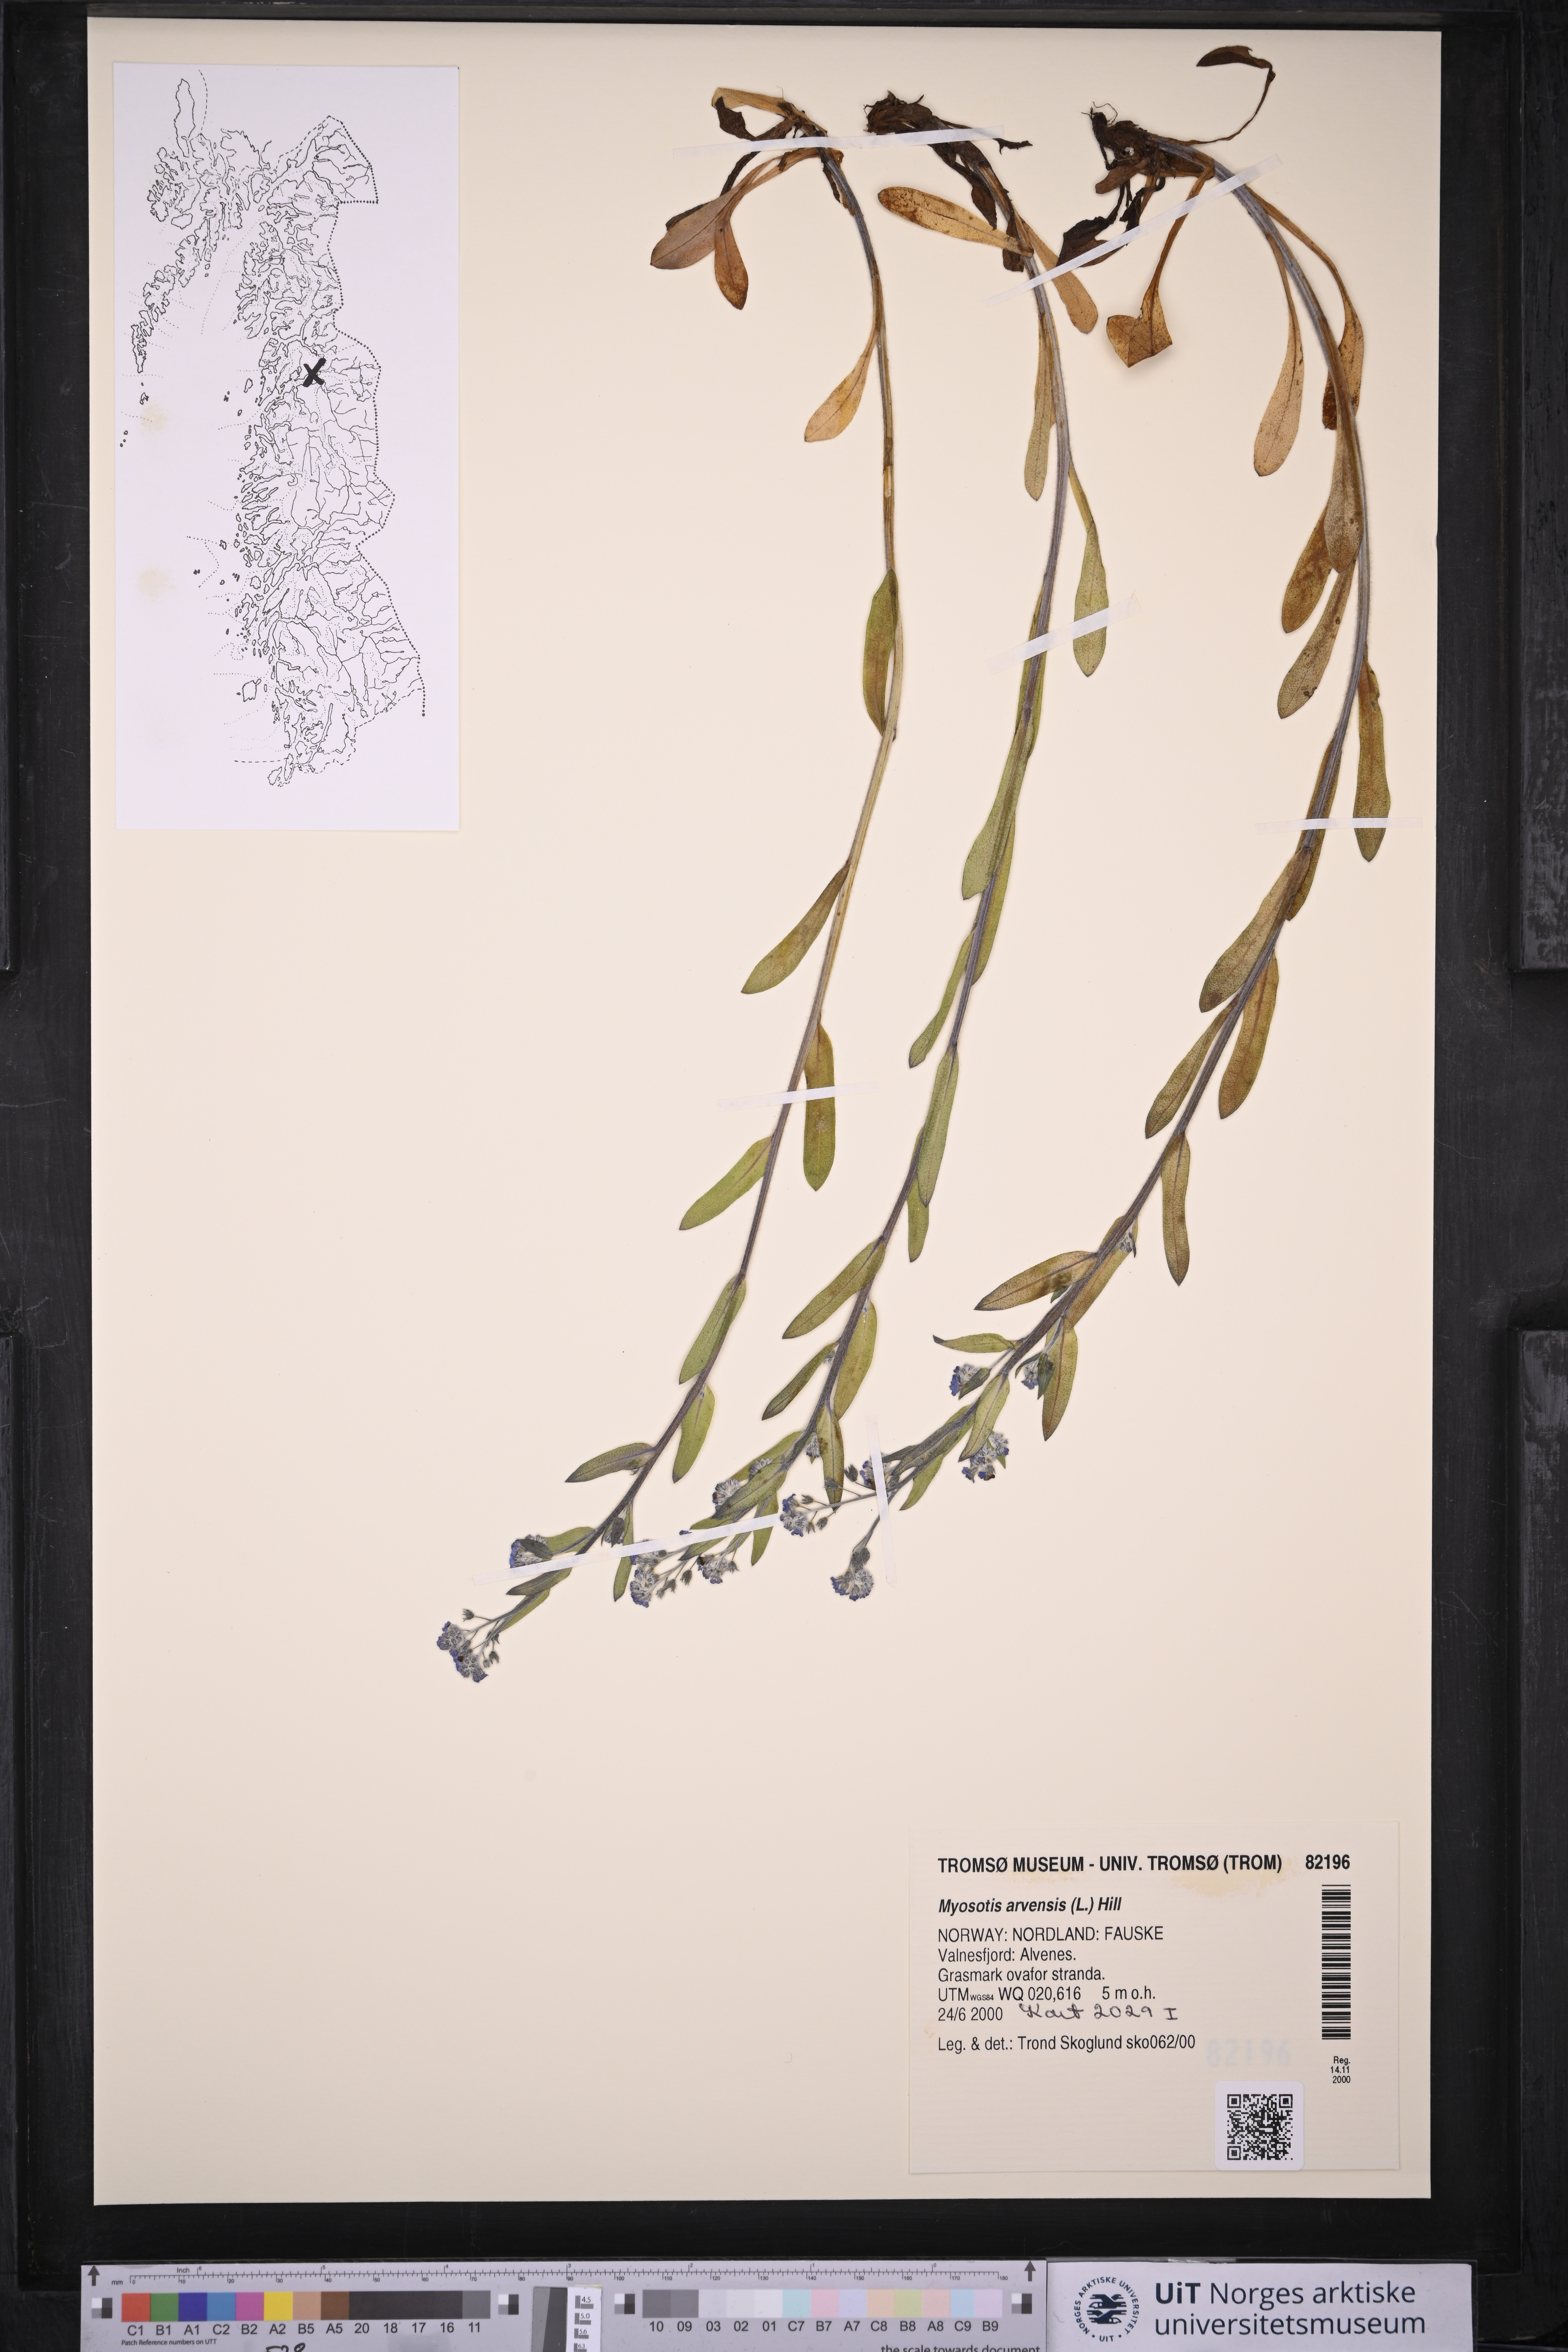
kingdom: Plantae
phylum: Tracheophyta
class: Magnoliopsida
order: Boraginales
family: Boraginaceae
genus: Myosotis
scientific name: Myosotis arvensis
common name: Field forget-me-not
